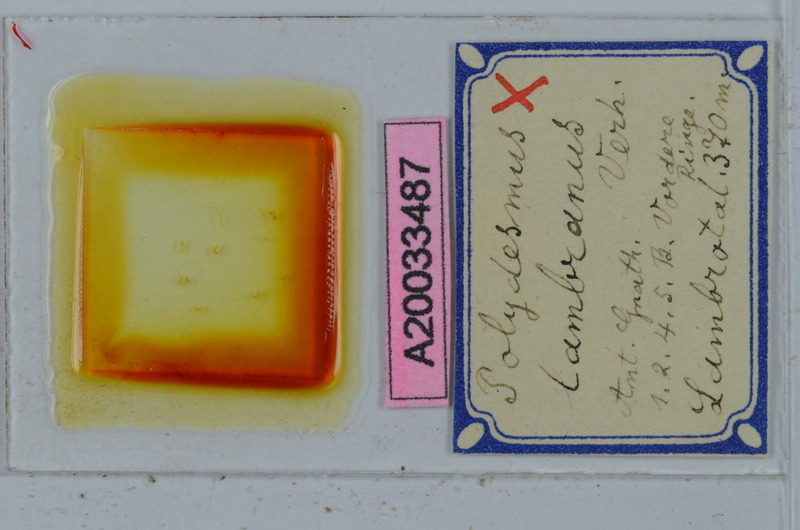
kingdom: Animalia
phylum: Arthropoda
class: Diplopoda
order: Polydesmida
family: Polydesmidae
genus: Polydesmus
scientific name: Polydesmus lambranus
